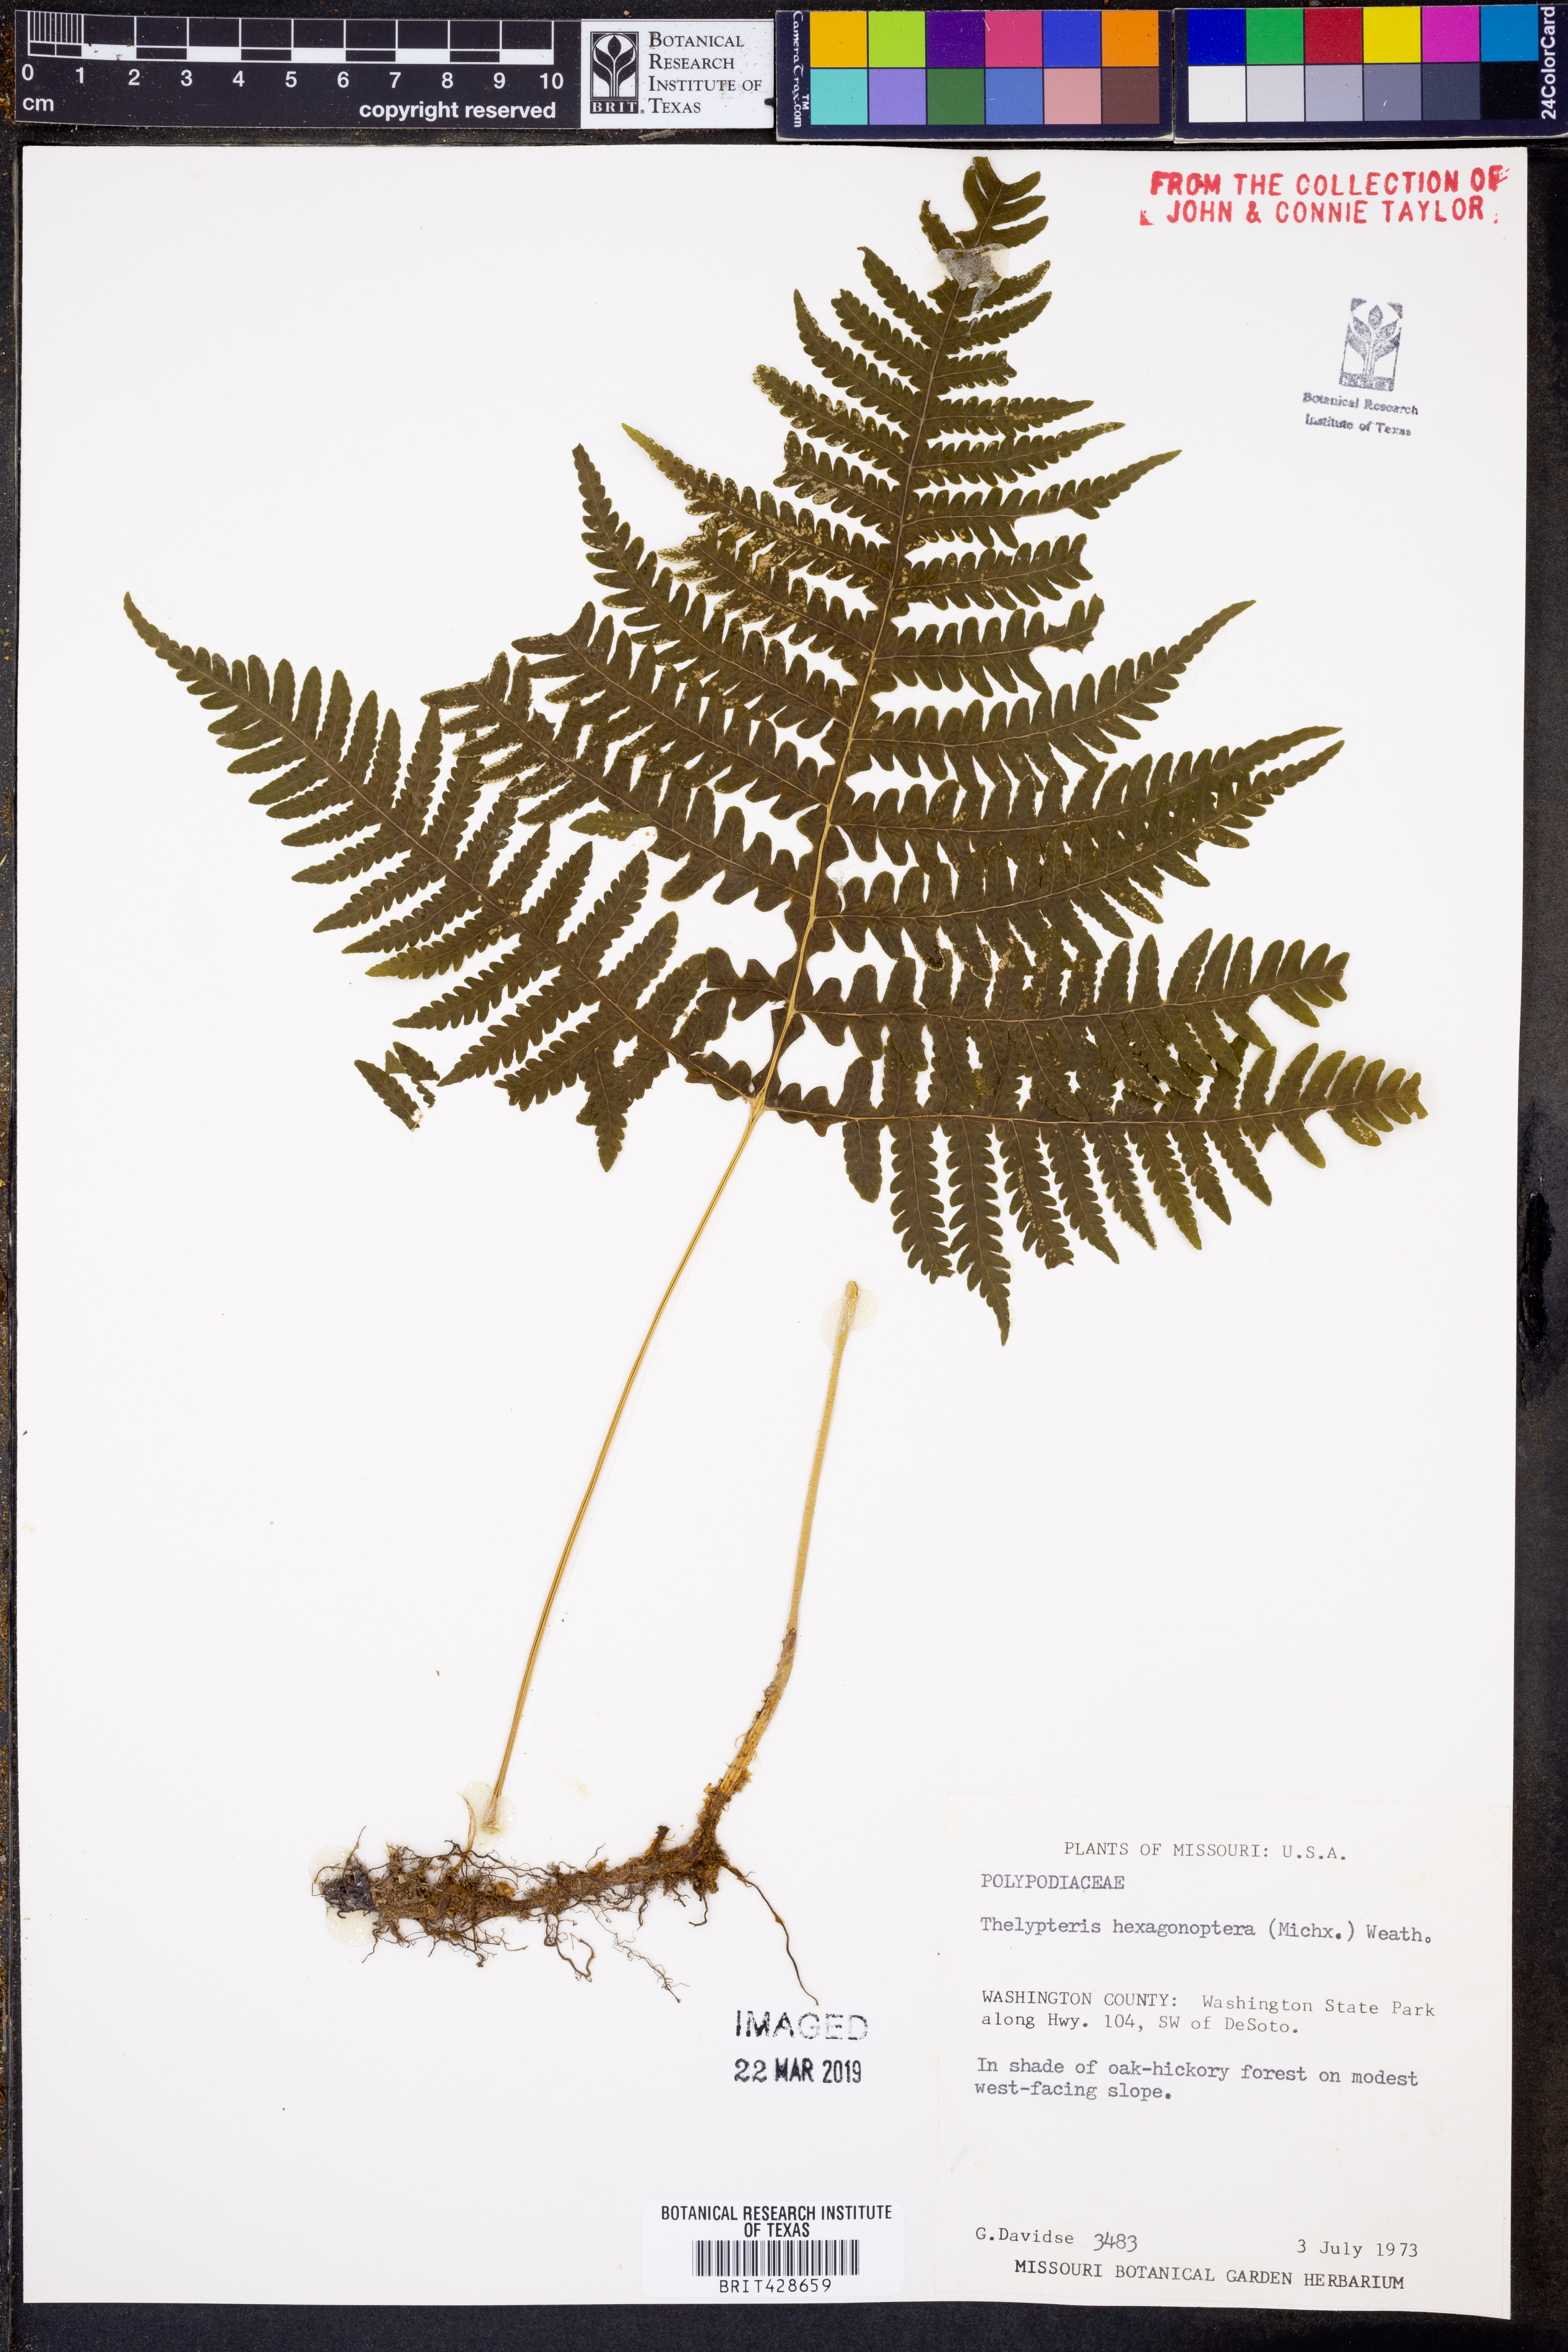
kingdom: Plantae
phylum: Tracheophyta
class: Polypodiopsida
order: Polypodiales
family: Thelypteridaceae
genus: Phegopteris
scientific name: Phegopteris hexagonoptera
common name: Broad beech fern
